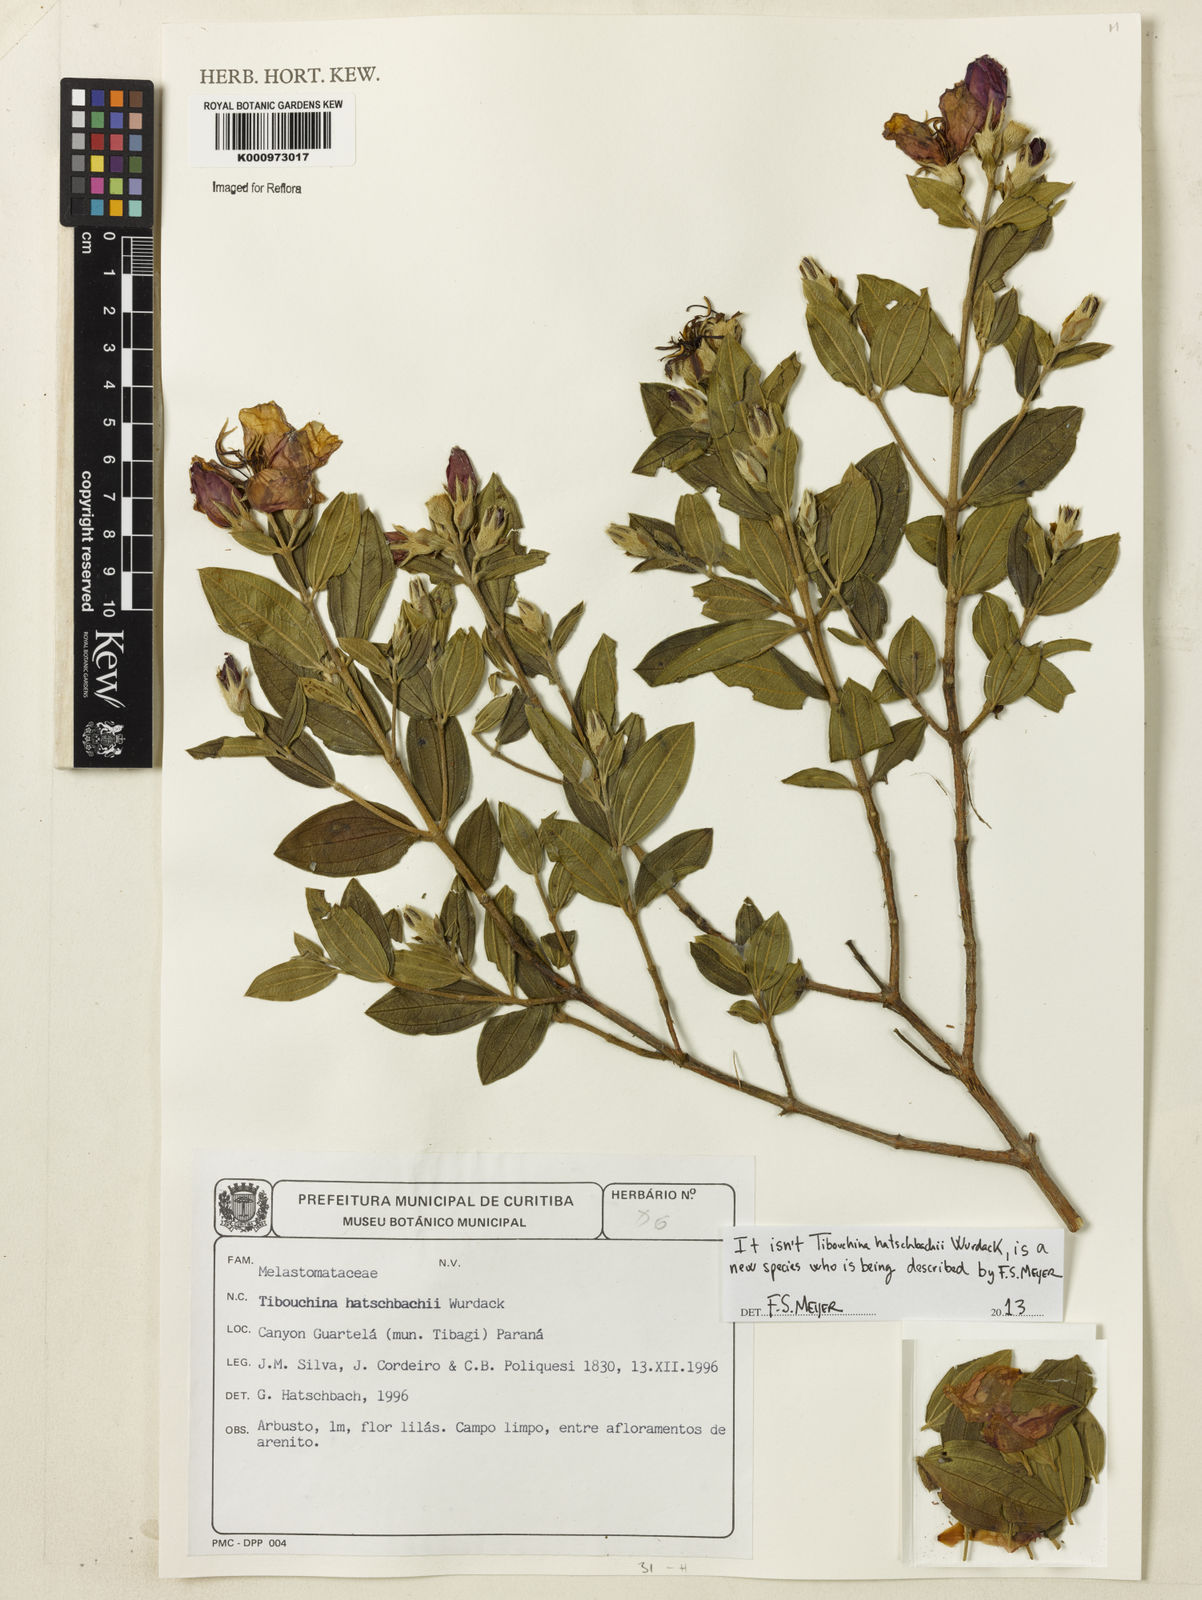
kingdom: Plantae
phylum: Tracheophyta
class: Magnoliopsida
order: Myrtales
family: Melastomataceae
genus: Tibouchina
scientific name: Tibouchina
